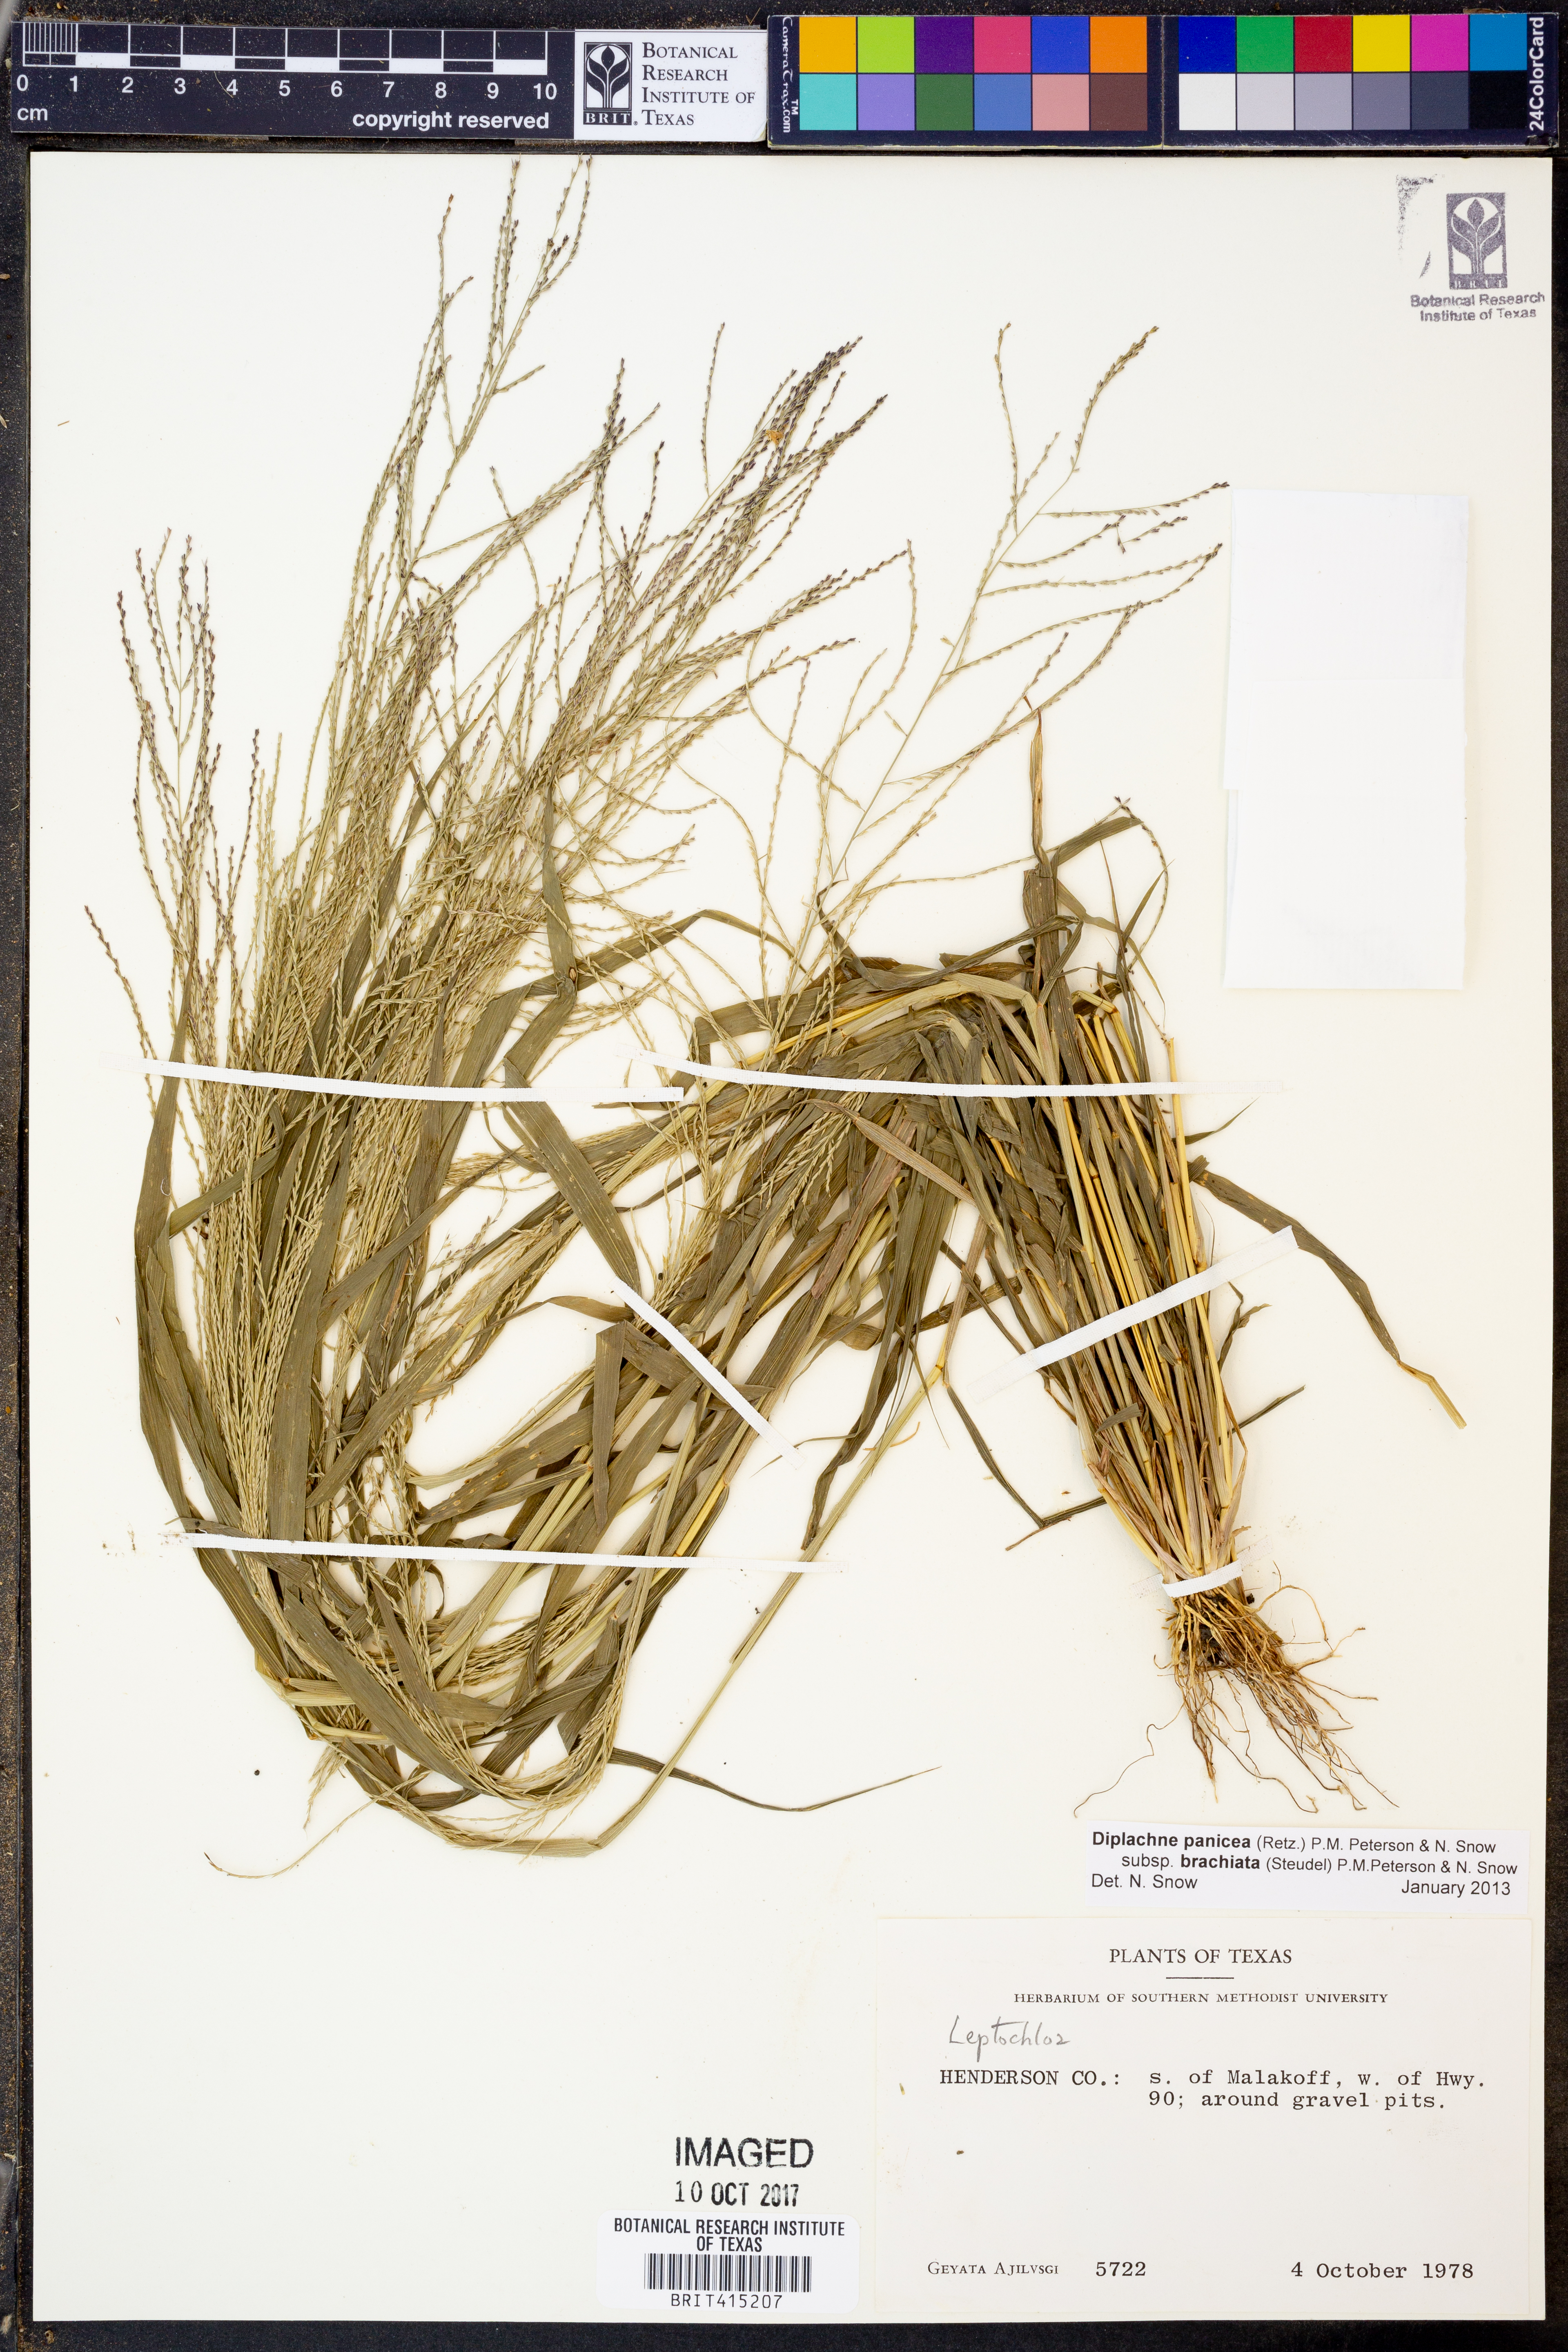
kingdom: Plantae
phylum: Tracheophyta
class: Liliopsida
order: Poales
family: Poaceae
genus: Leptochloa
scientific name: Leptochloa panicea
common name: Mucronate sprangletop
